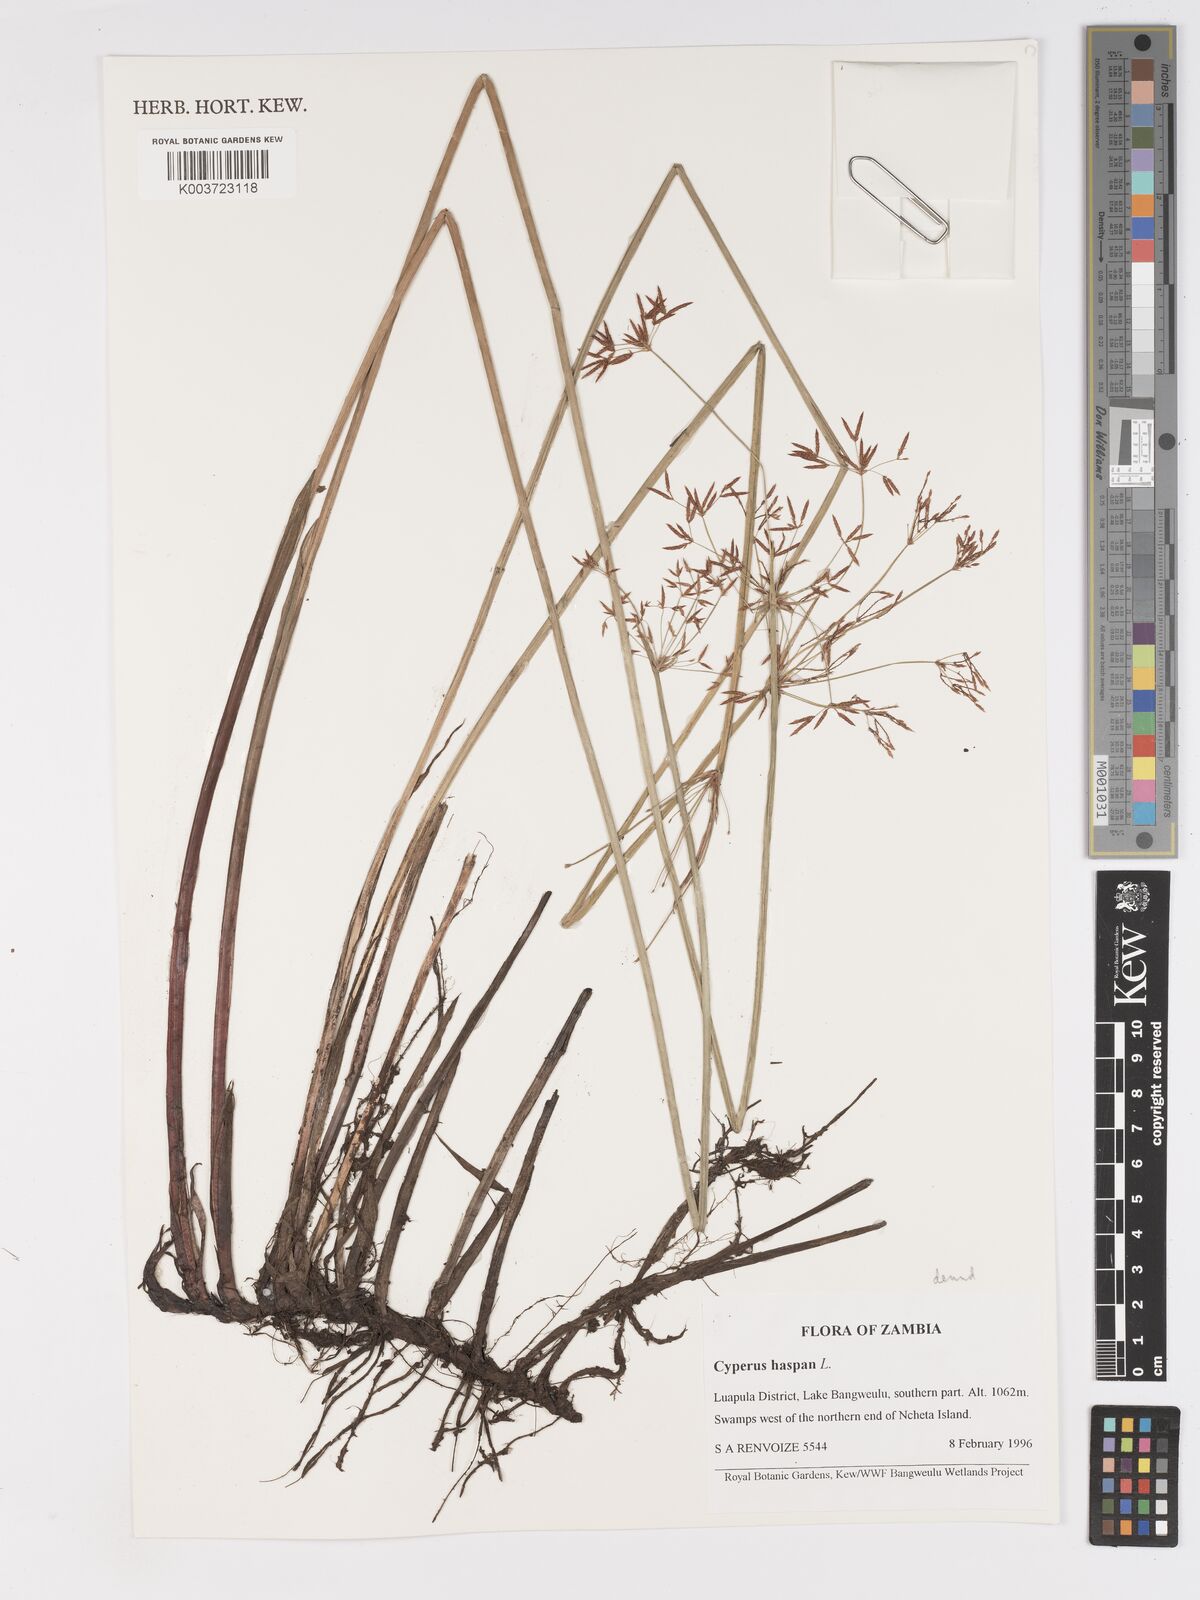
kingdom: Plantae
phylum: Tracheophyta
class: Liliopsida
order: Poales
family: Cyperaceae
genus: Cyperus
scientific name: Cyperus haspan
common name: Haspan flatsedge
